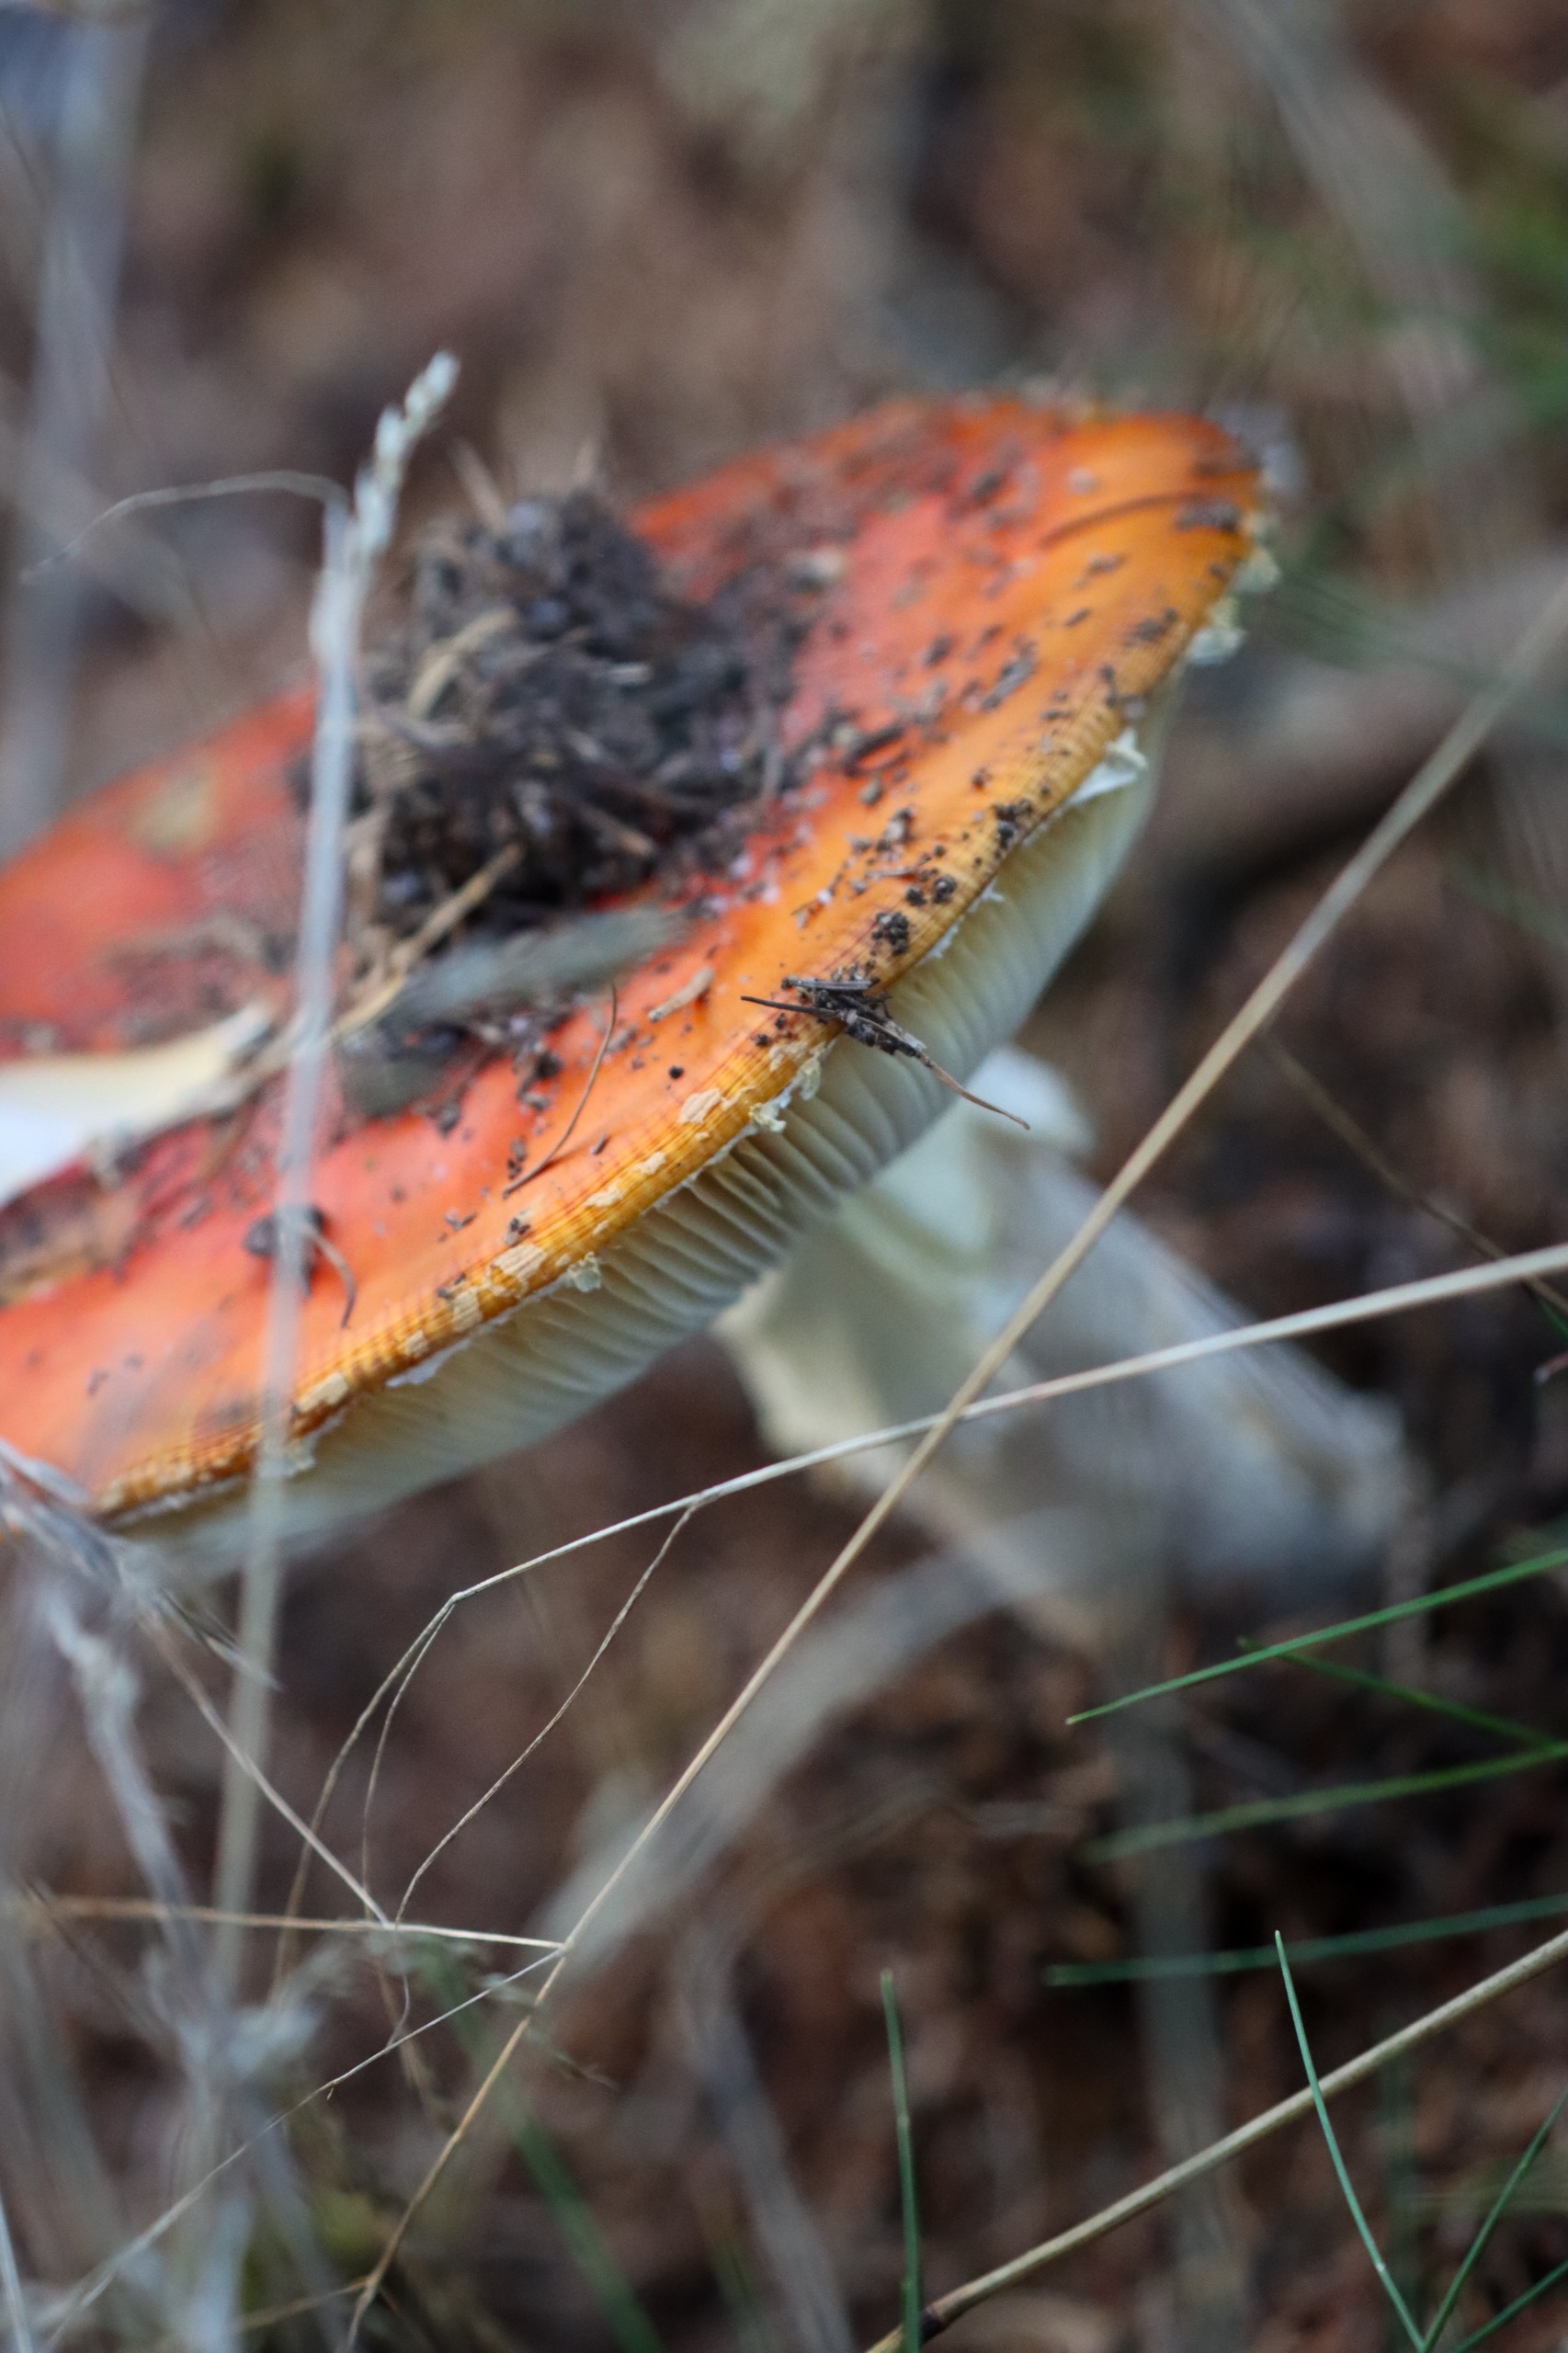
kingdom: Fungi
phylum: Basidiomycota
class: Agaricomycetes
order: Agaricales
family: Amanitaceae
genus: Amanita
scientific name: Amanita muscaria
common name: Rød fluesvamp
